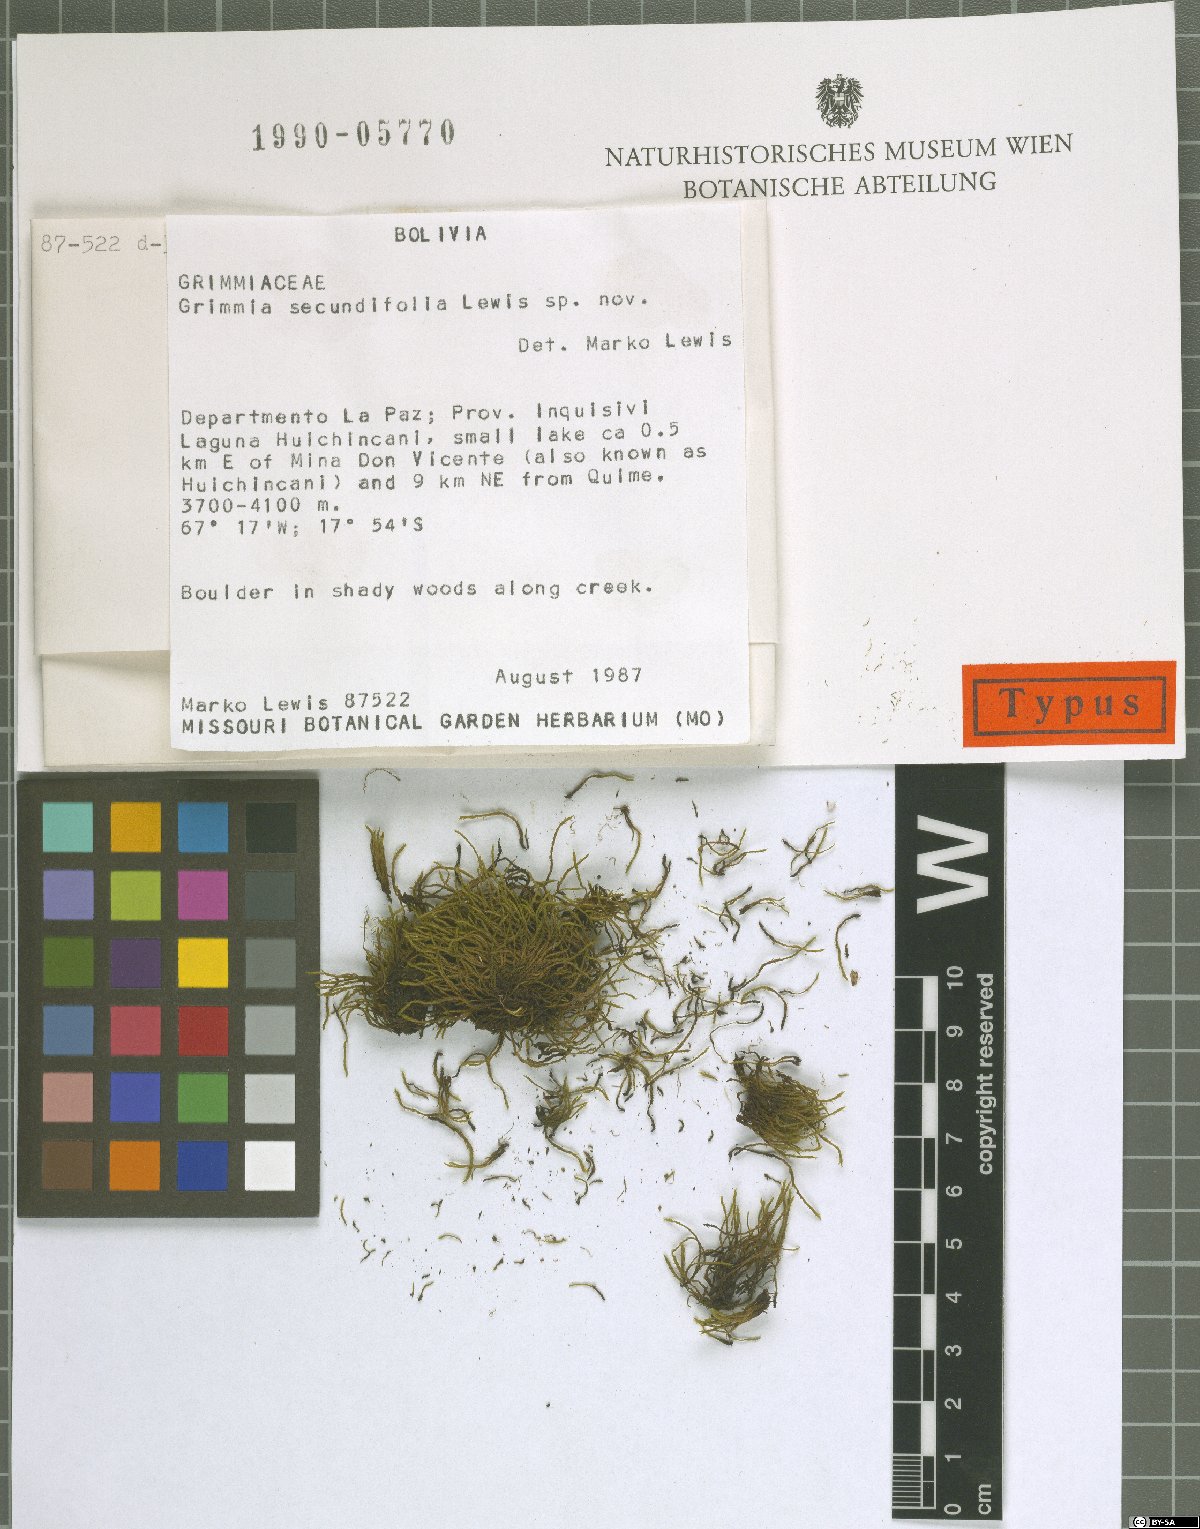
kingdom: Plantae
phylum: Bryophyta
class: Bryopsida
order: Grimmiales
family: Grimmiaceae
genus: Grimmia
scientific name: Grimmia
